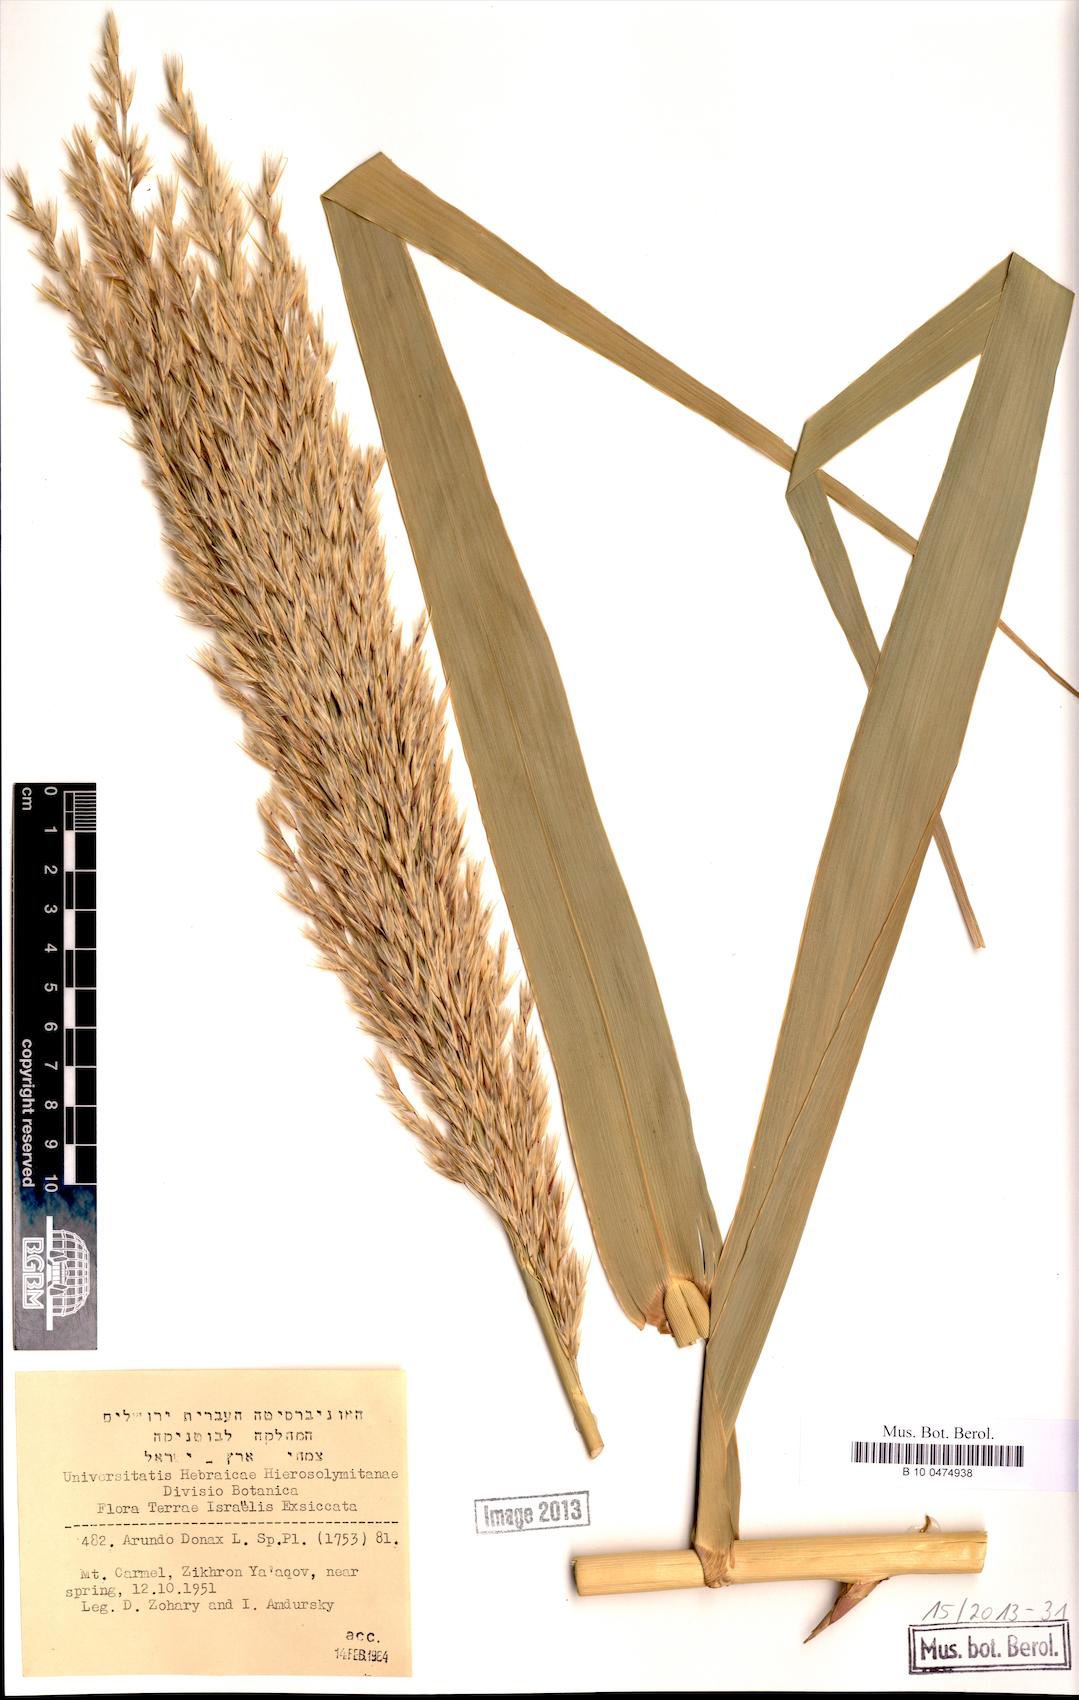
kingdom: Plantae
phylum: Tracheophyta
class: Liliopsida
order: Poales
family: Poaceae
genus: Arundo
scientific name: Arundo donax
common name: Giant reed
